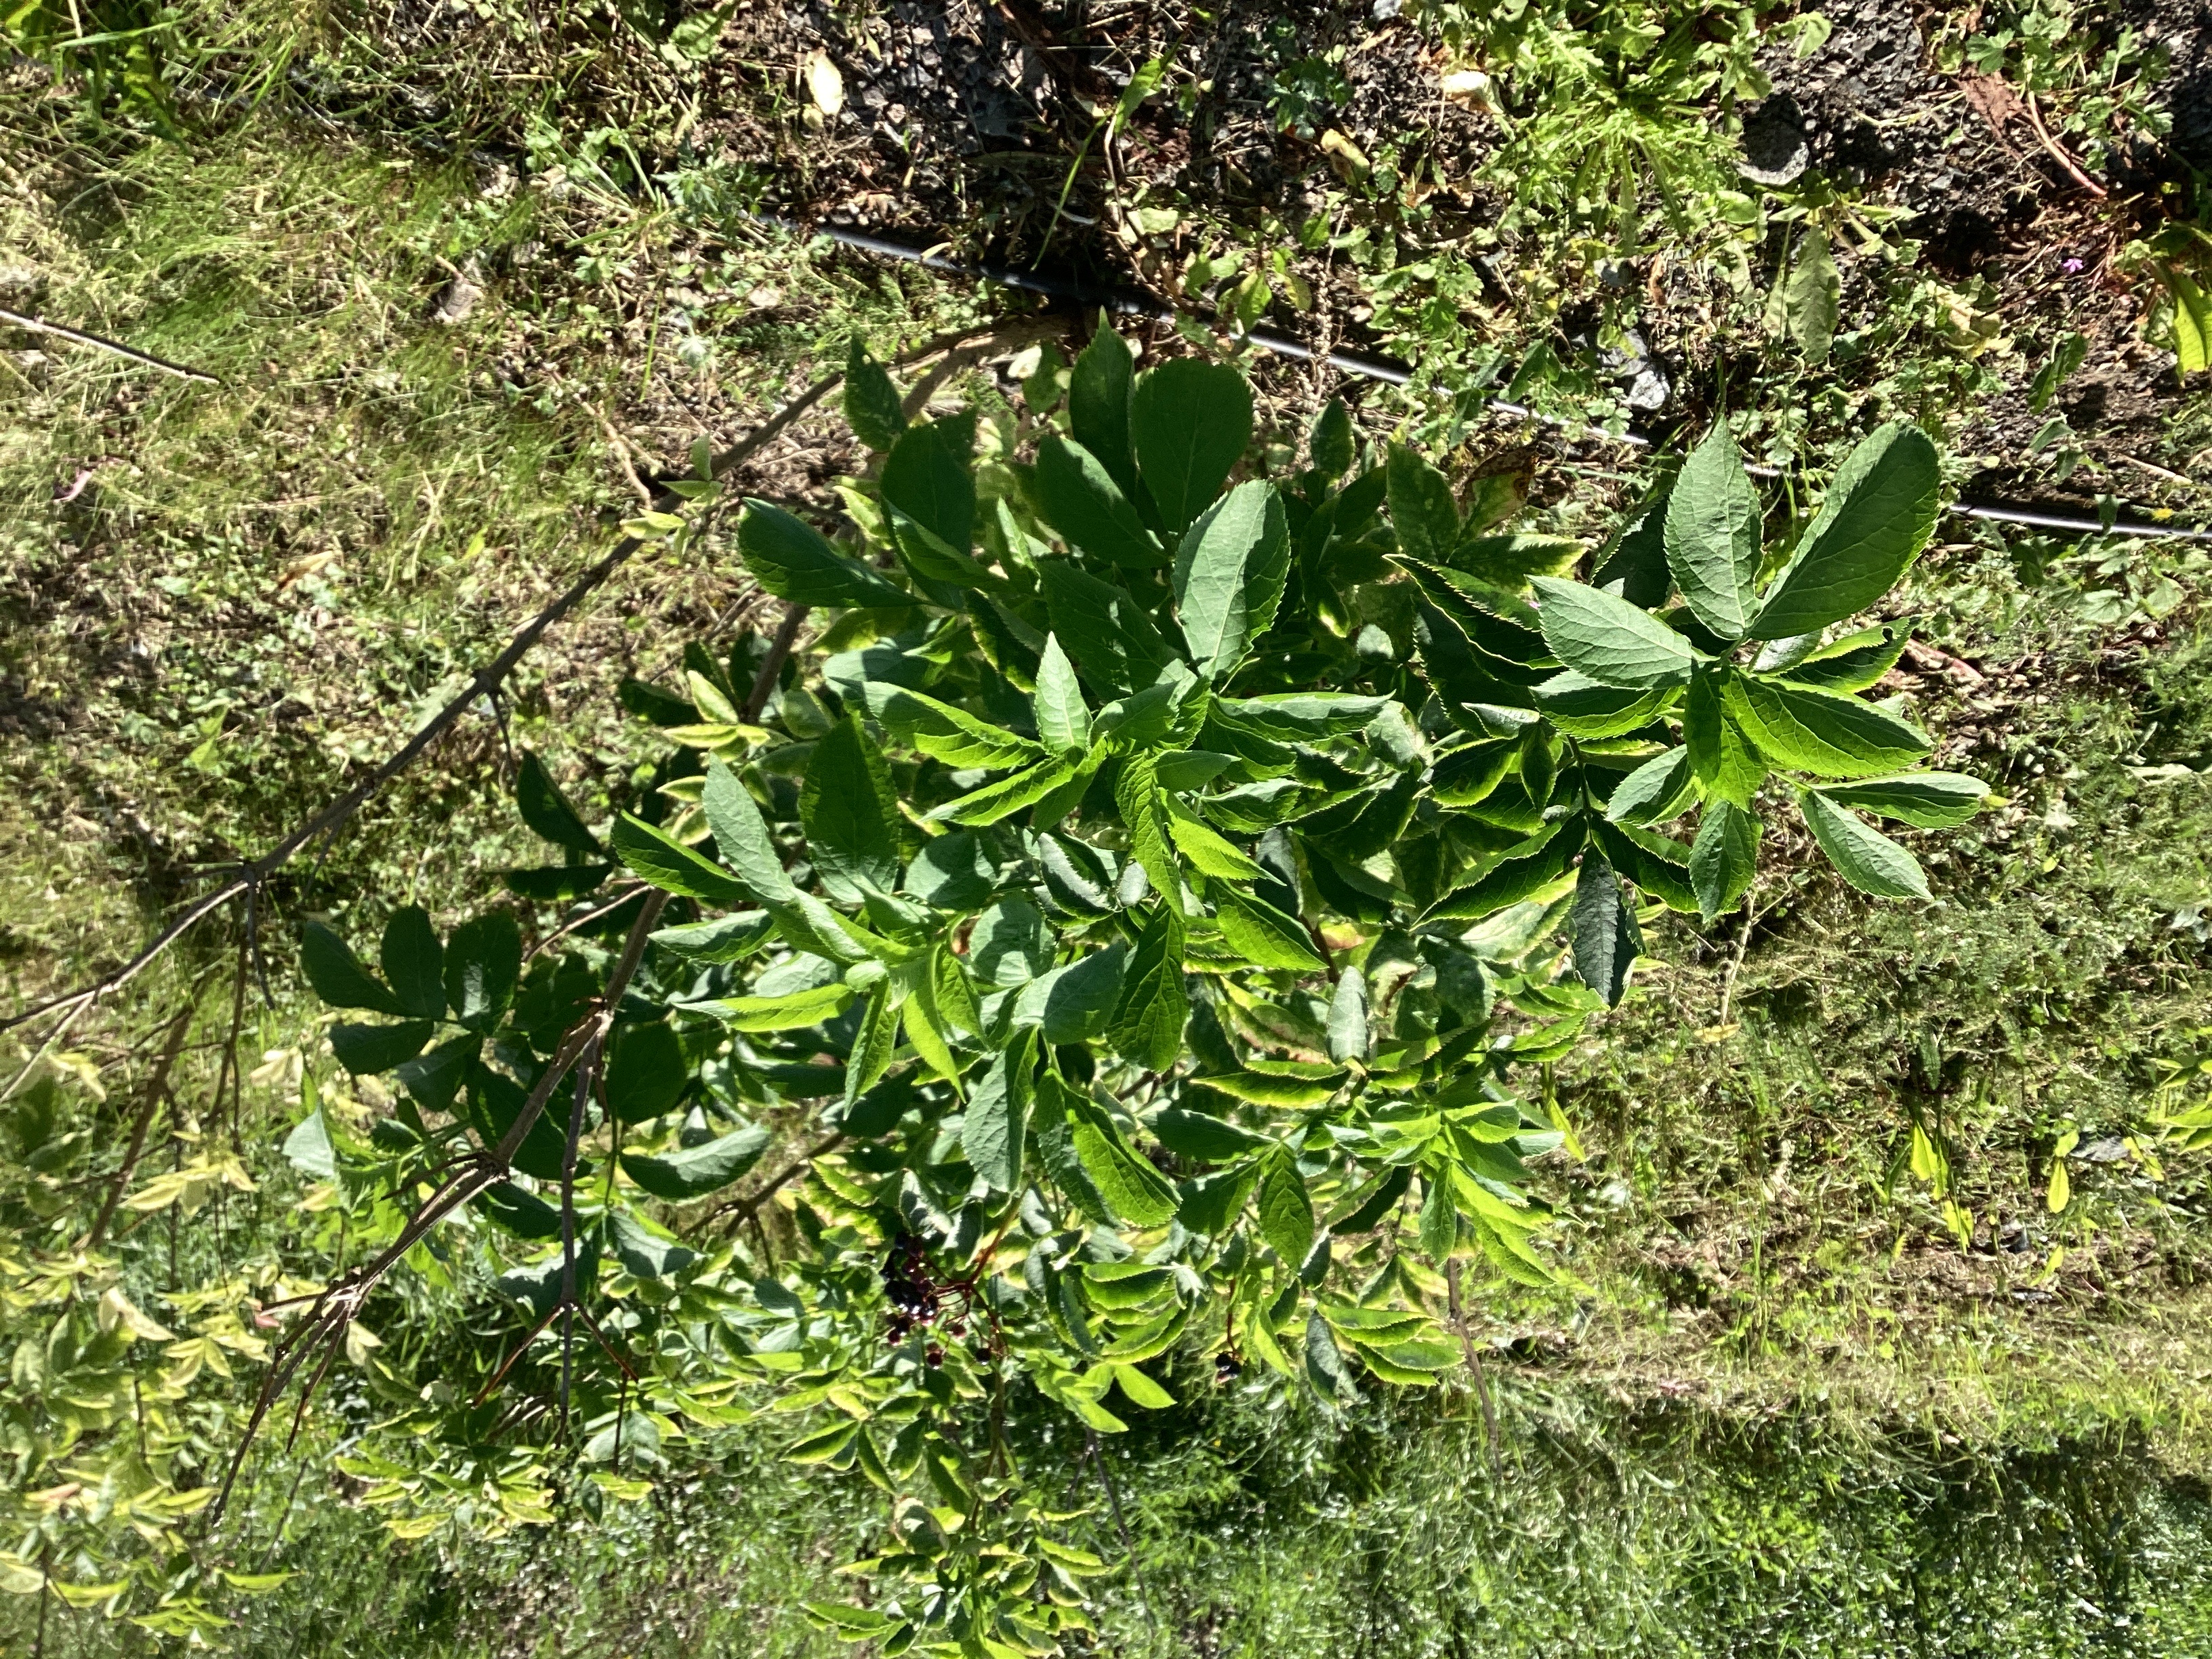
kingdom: Plantae
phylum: Tracheophyta
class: Magnoliopsida
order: Dipsacales
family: Viburnaceae
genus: Sambucus
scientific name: Sambucus nigra
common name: svarthyll
